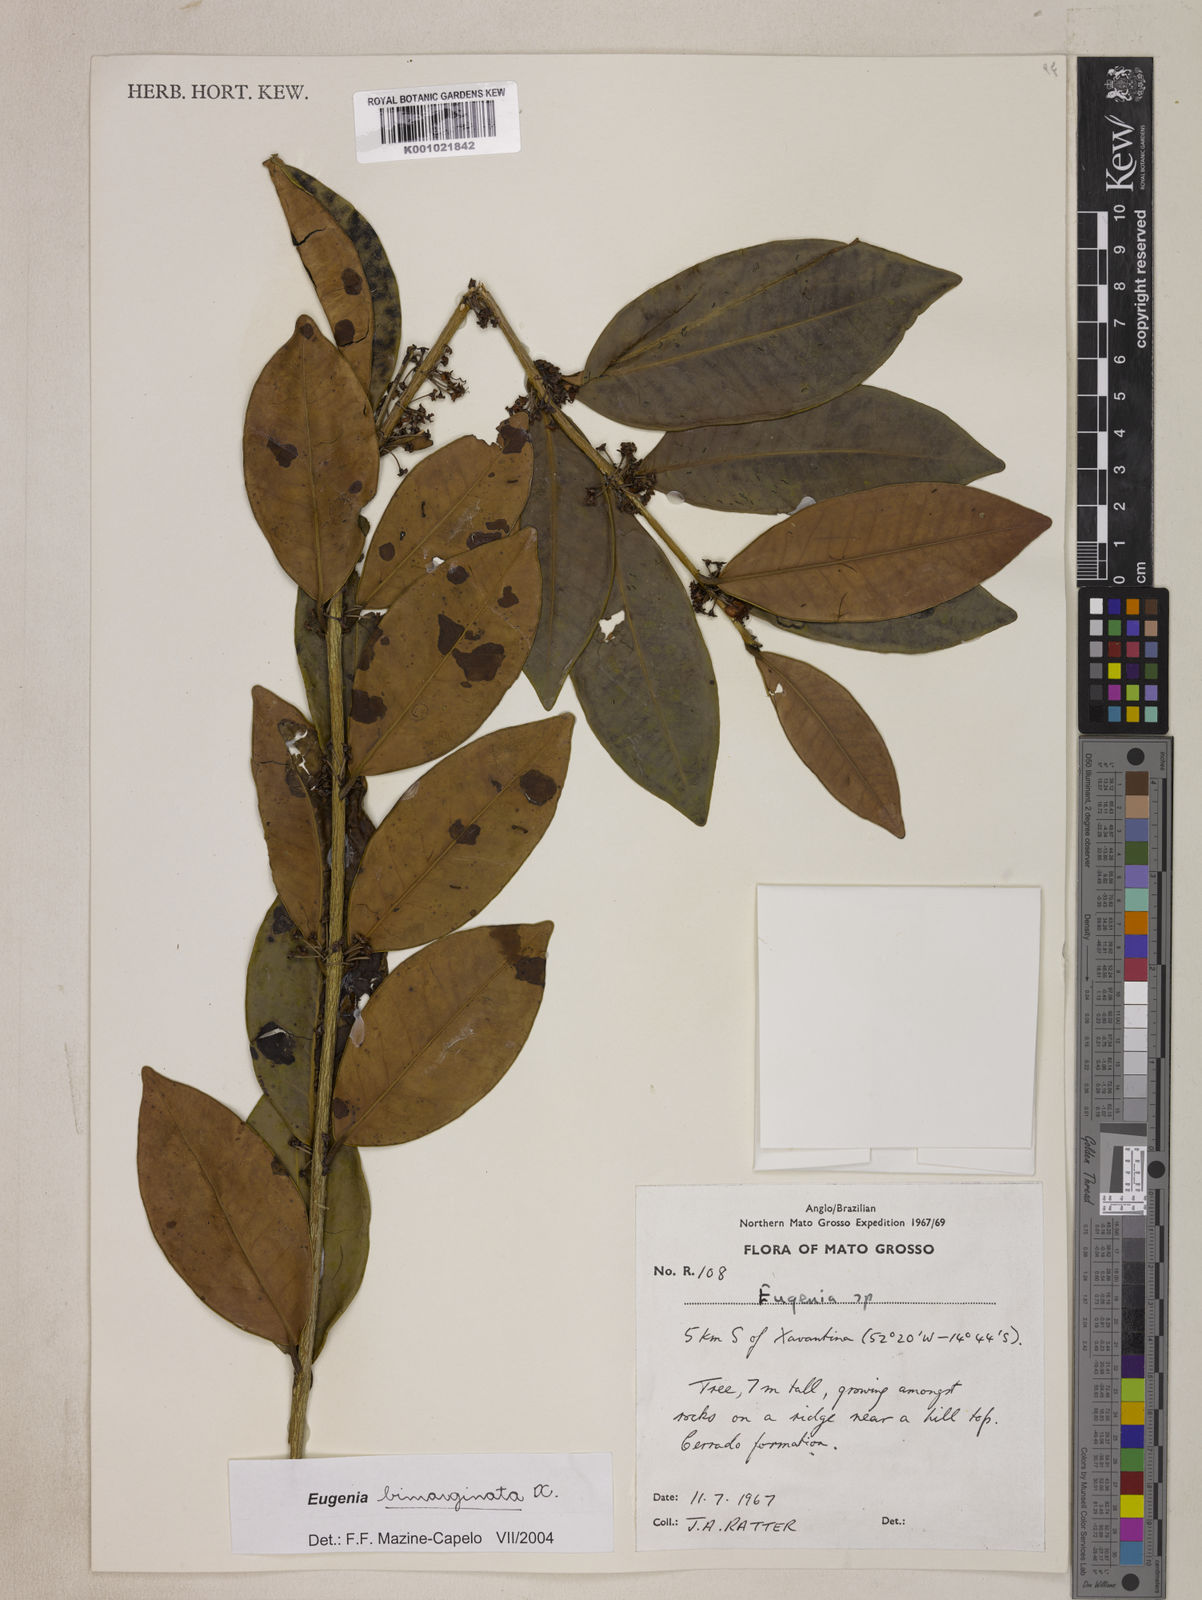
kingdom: Plantae
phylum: Tracheophyta
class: Magnoliopsida
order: Myrtales
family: Myrtaceae
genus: Eugenia
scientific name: Eugenia bimarginata
